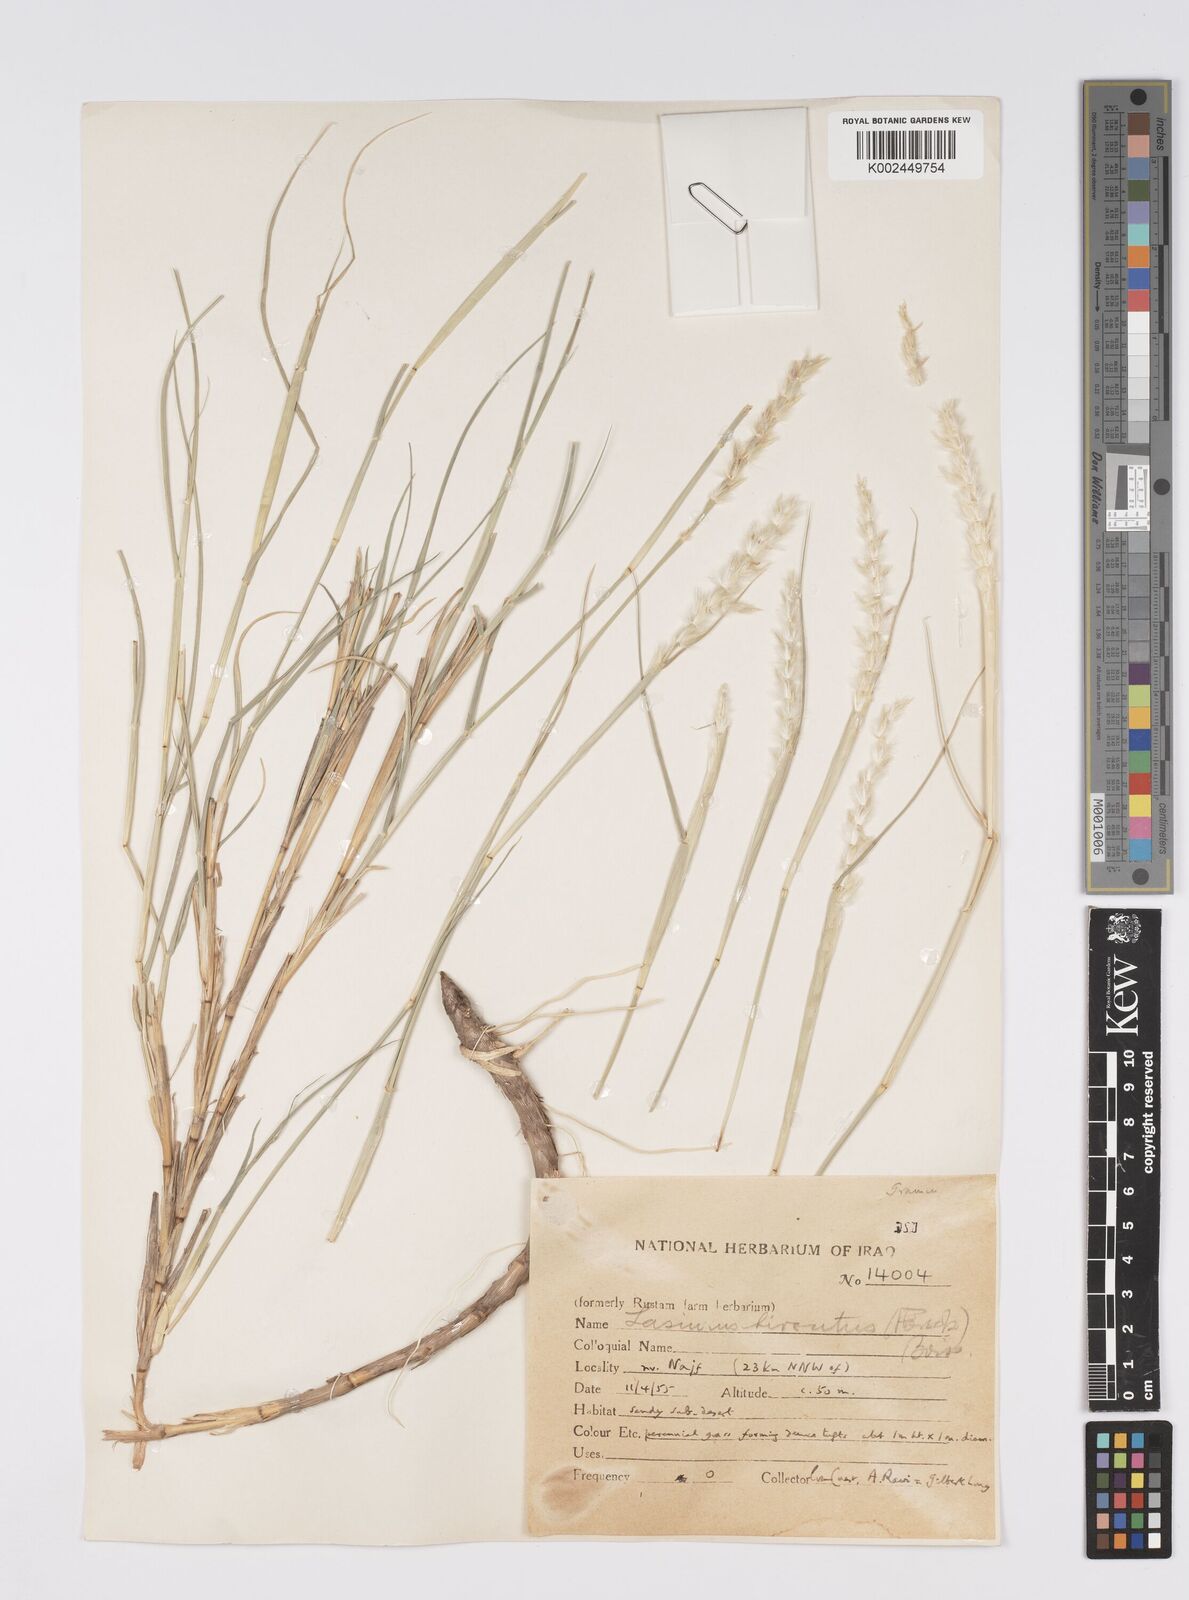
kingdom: Plantae
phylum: Tracheophyta
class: Liliopsida
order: Poales
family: Poaceae
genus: Lasiurus
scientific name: Lasiurus scindicus
